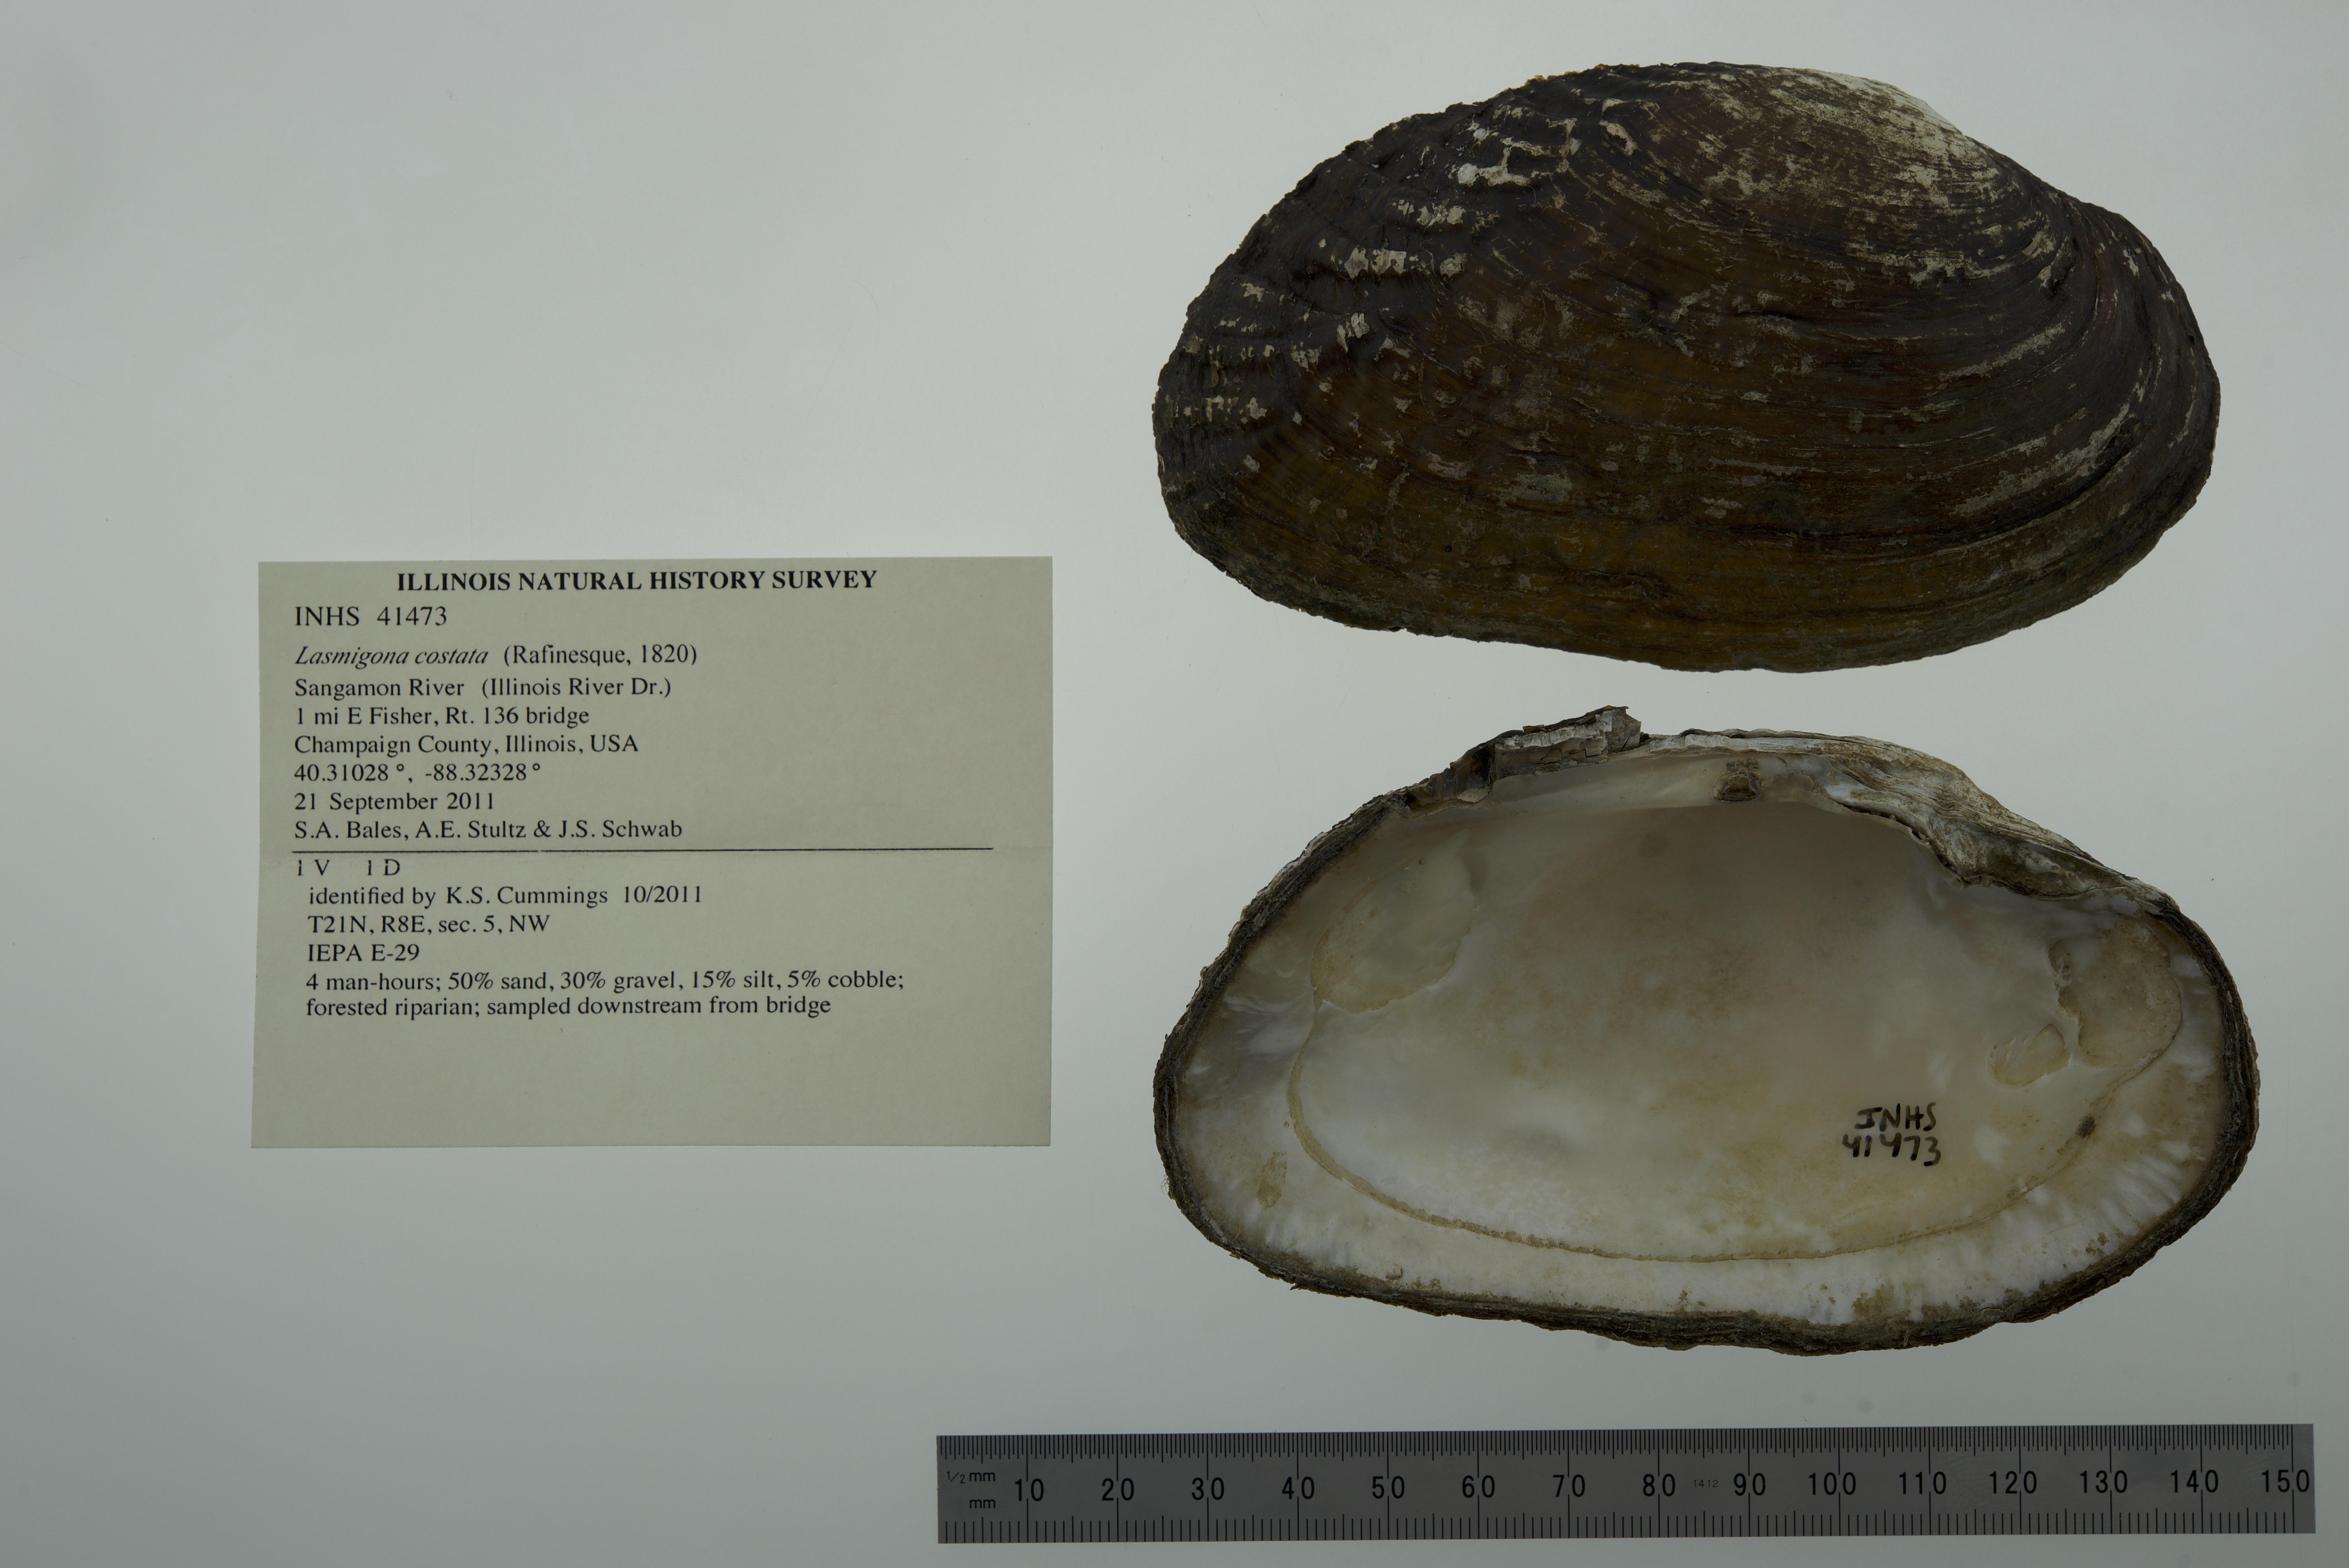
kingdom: Animalia
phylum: Mollusca
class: Bivalvia
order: Unionida
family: Unionidae
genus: Lasmigona
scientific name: Lasmigona costata
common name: Flutedshell
